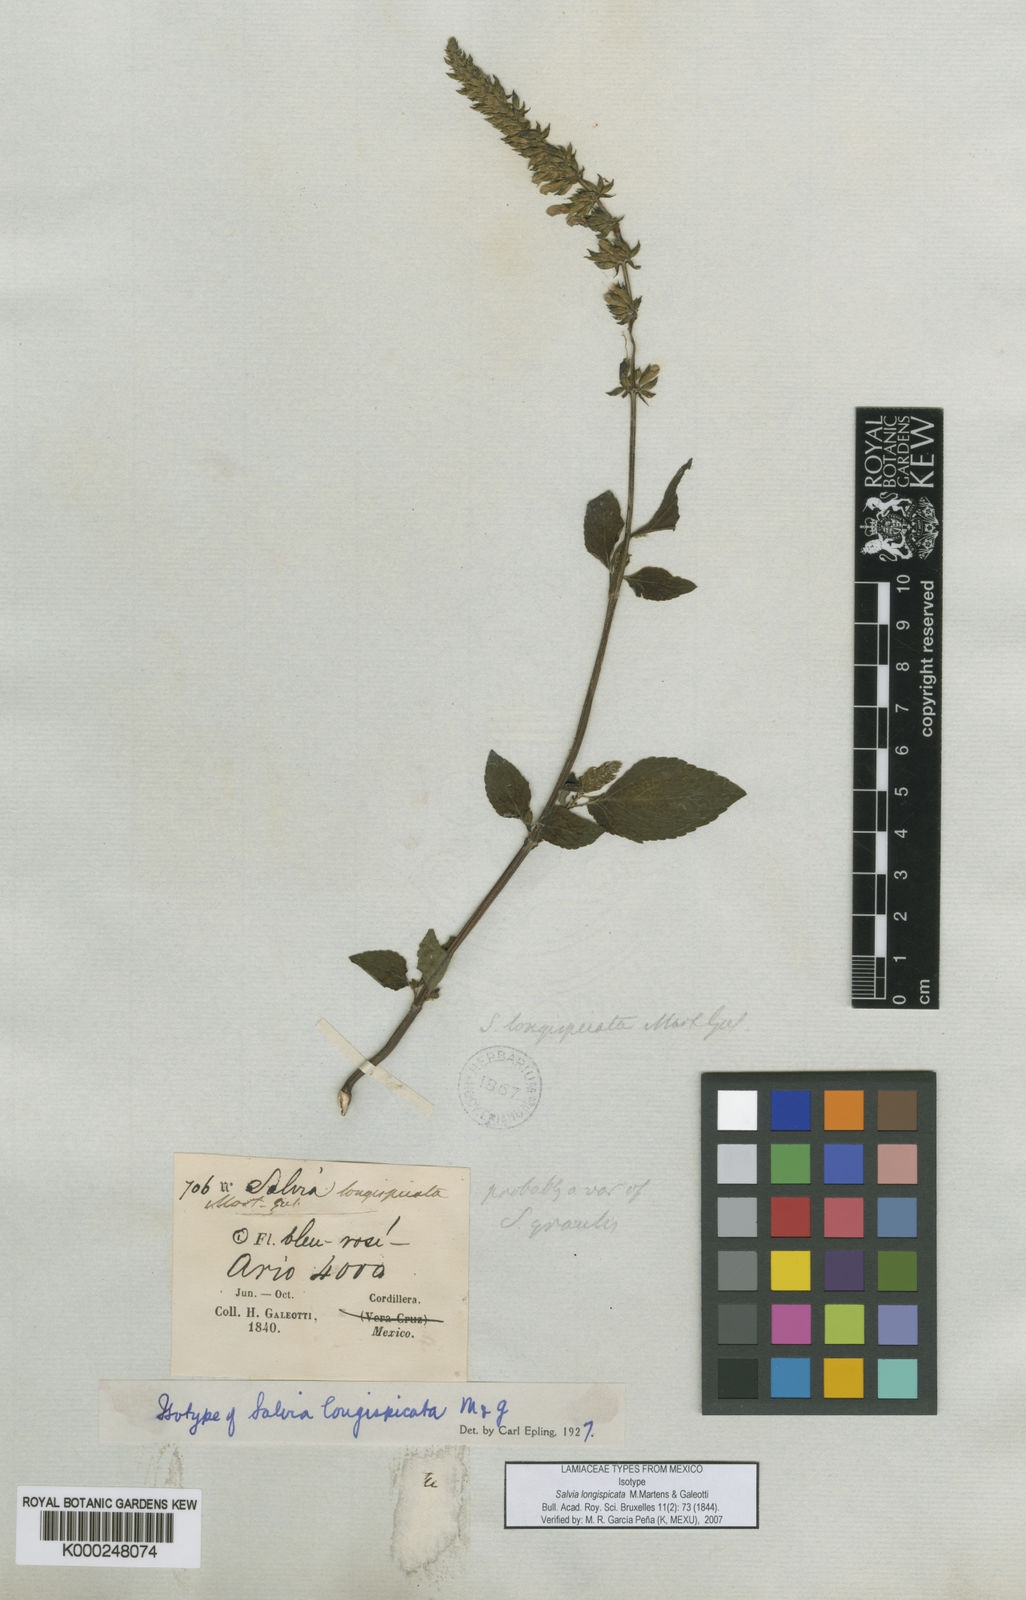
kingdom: Plantae
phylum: Tracheophyta
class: Magnoliopsida
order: Lamiales
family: Lamiaceae
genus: Salvia
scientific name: Salvia longispicata
